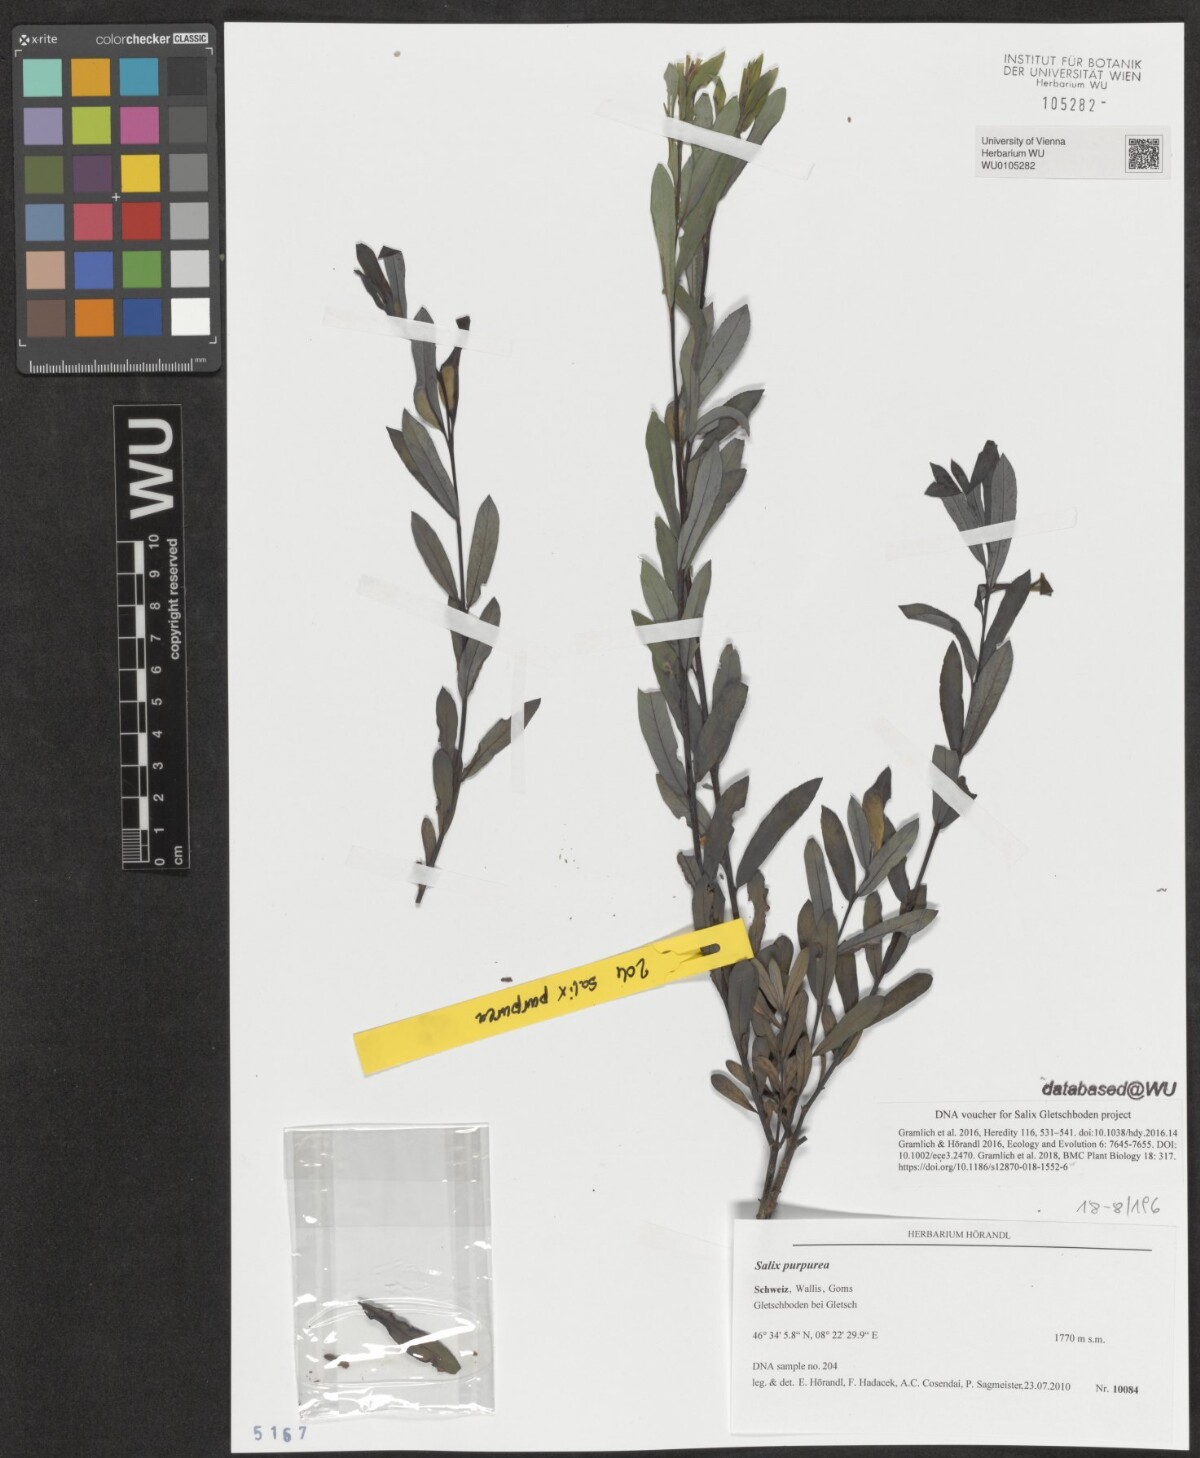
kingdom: Plantae
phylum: Tracheophyta
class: Magnoliopsida
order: Malpighiales
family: Salicaceae
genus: Salix
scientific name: Salix purpurea
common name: Purple willow
